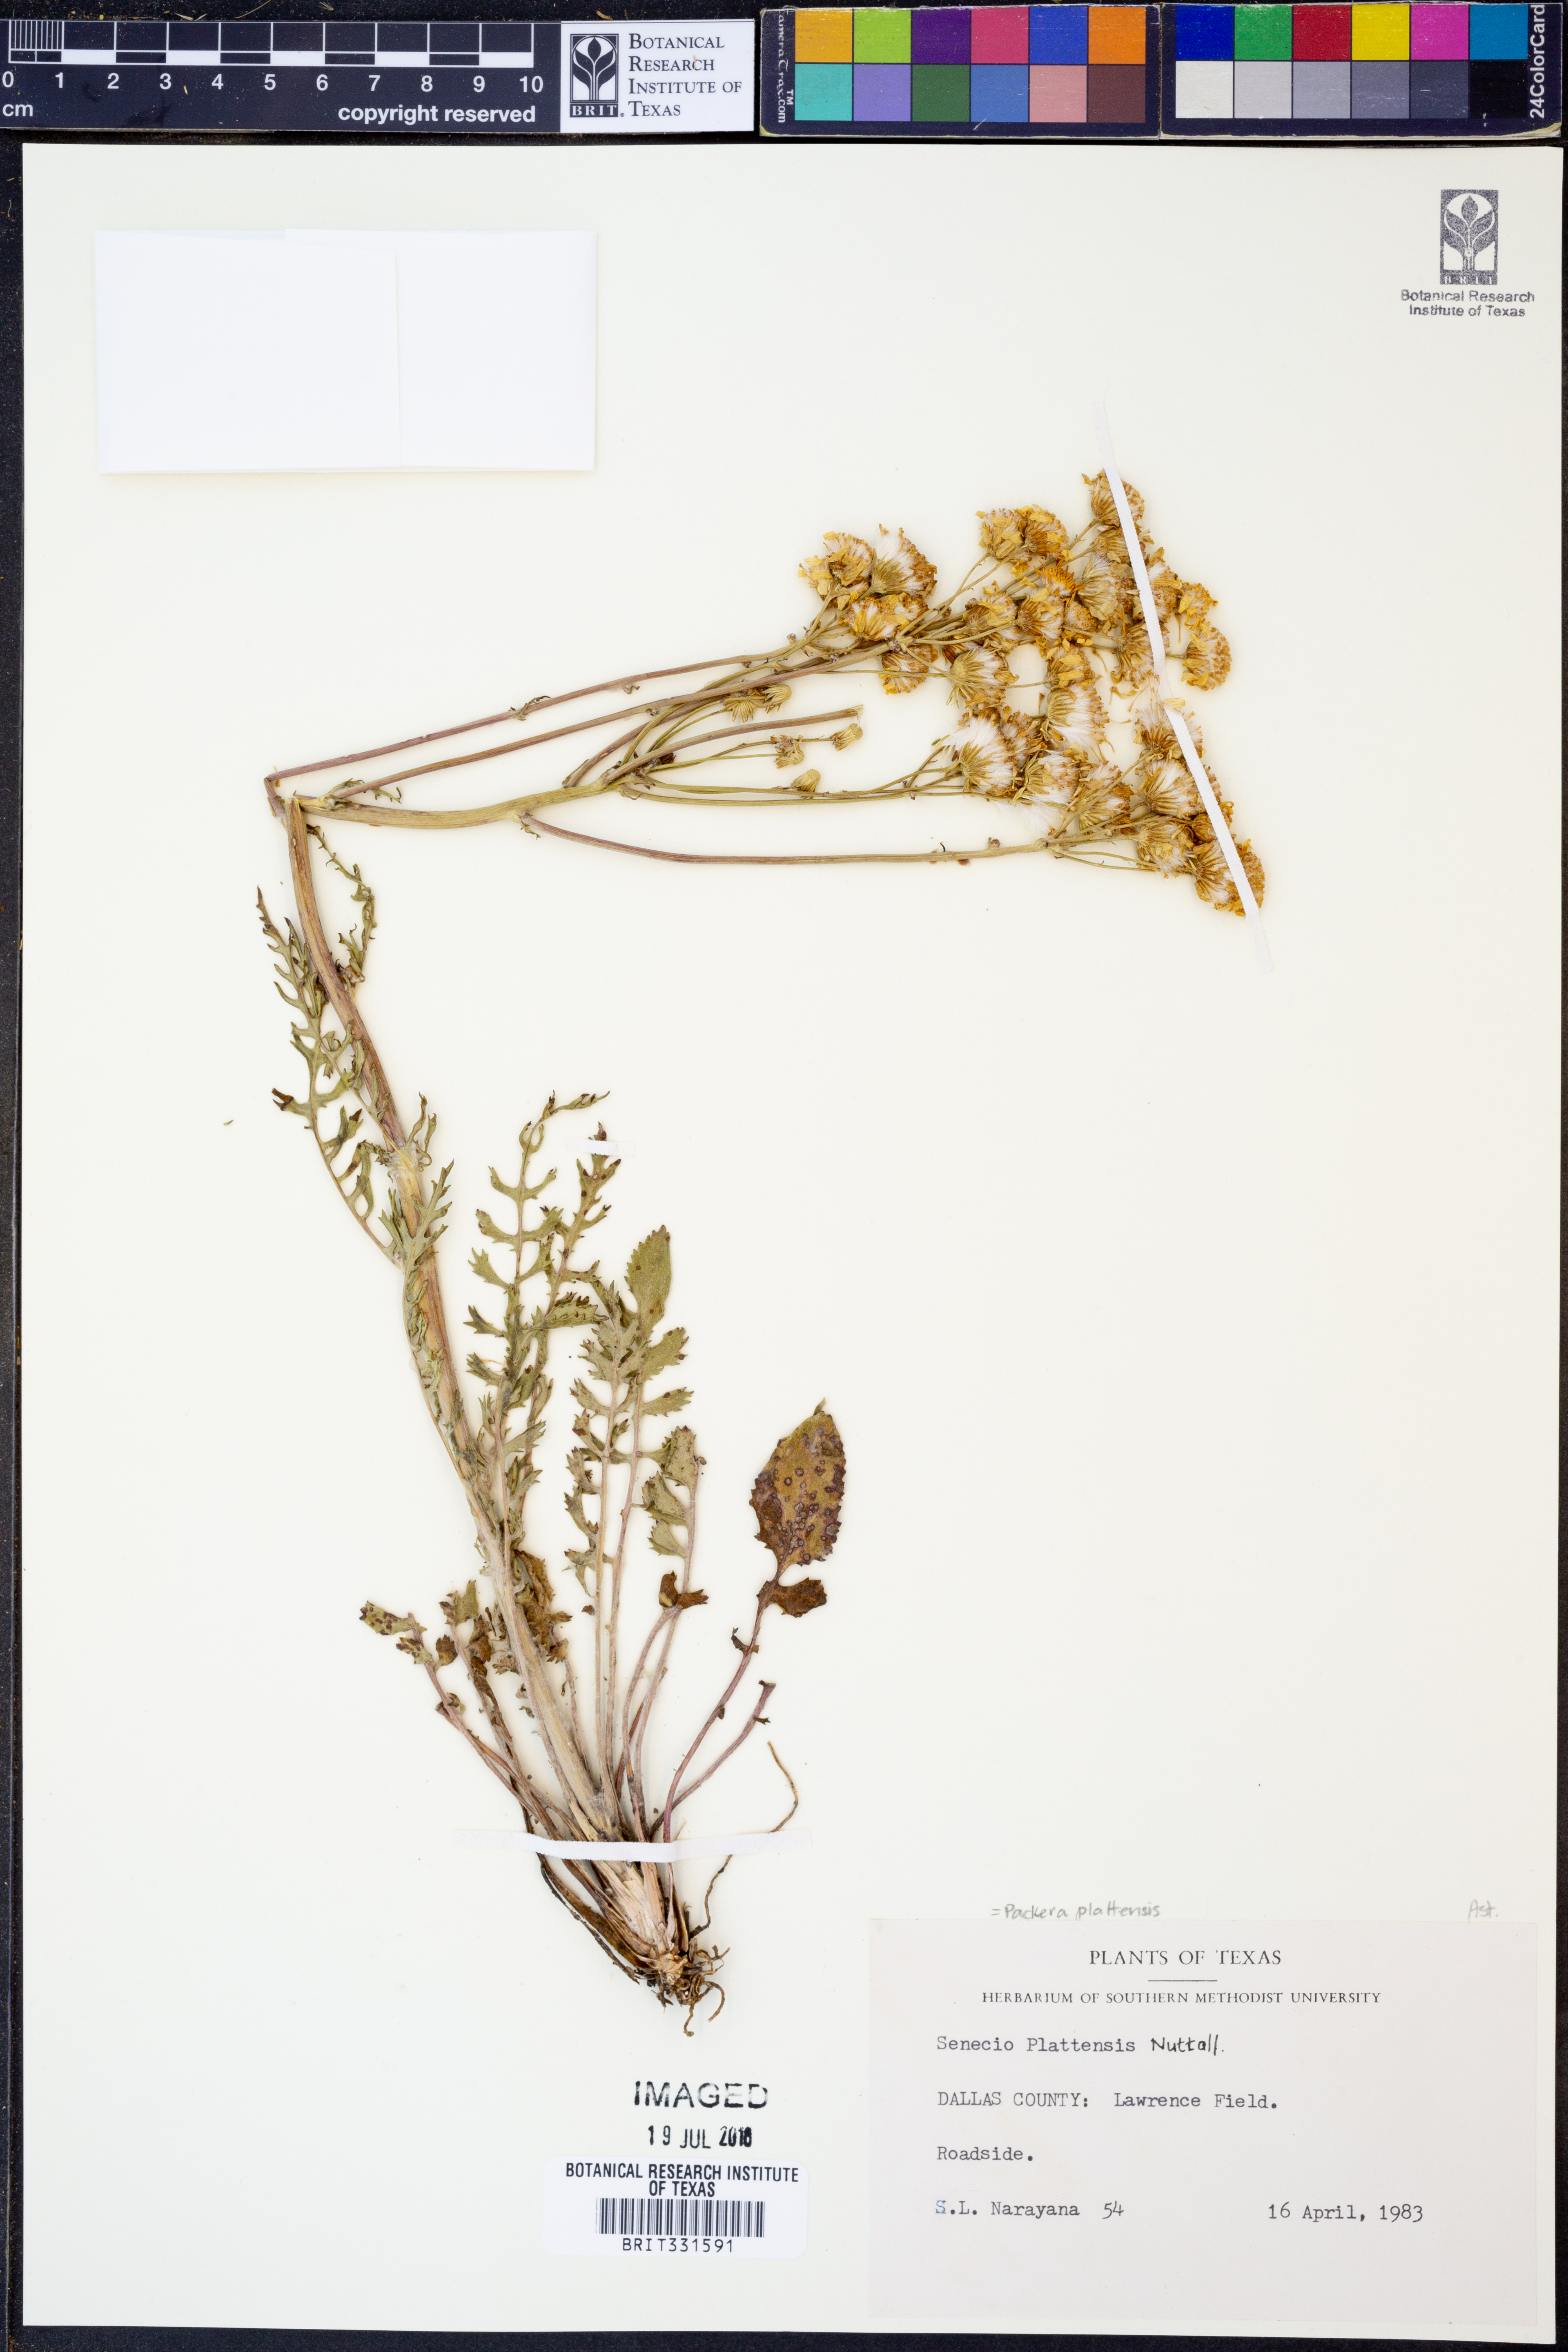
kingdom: Plantae
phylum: Tracheophyta
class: Magnoliopsida
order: Asterales
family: Asteraceae
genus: Packera
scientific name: Packera plattensis
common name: Prairie groundsel
